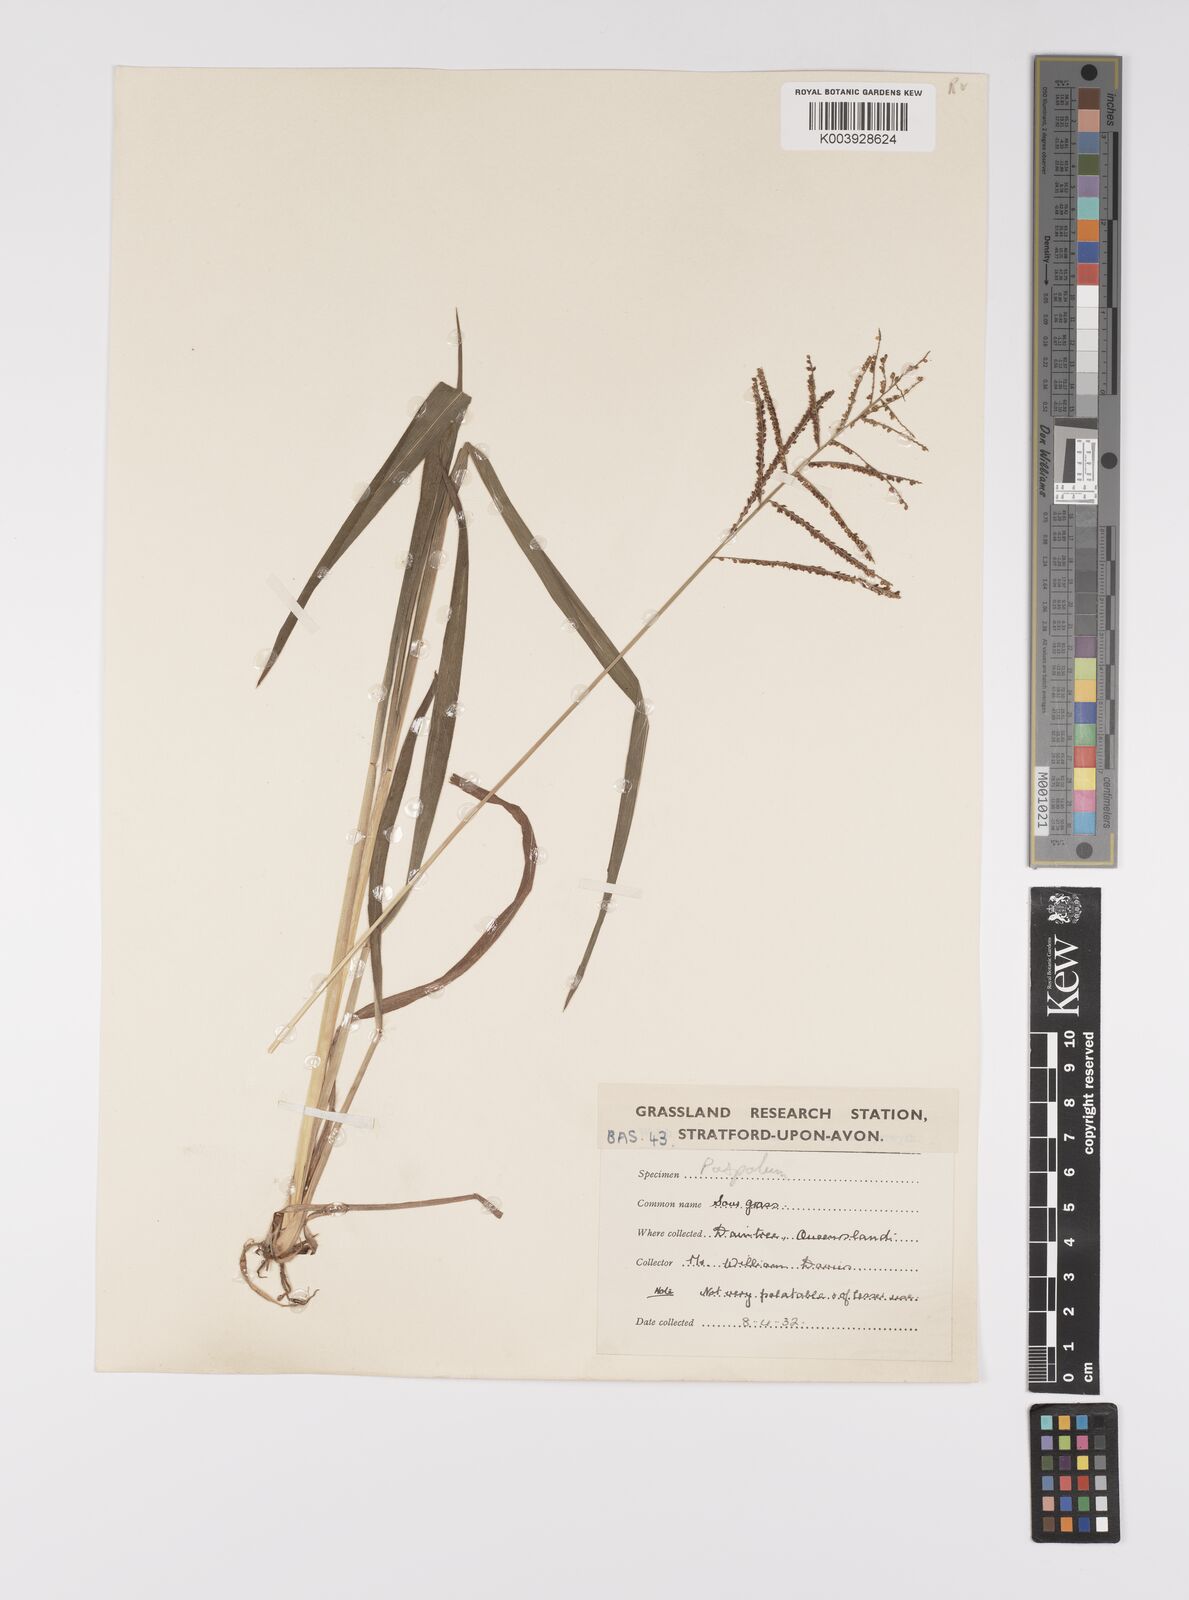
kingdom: Plantae
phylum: Tracheophyta
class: Liliopsida
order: Poales
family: Poaceae
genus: Paspalum
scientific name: Paspalum paniculatum
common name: Arrocillo
